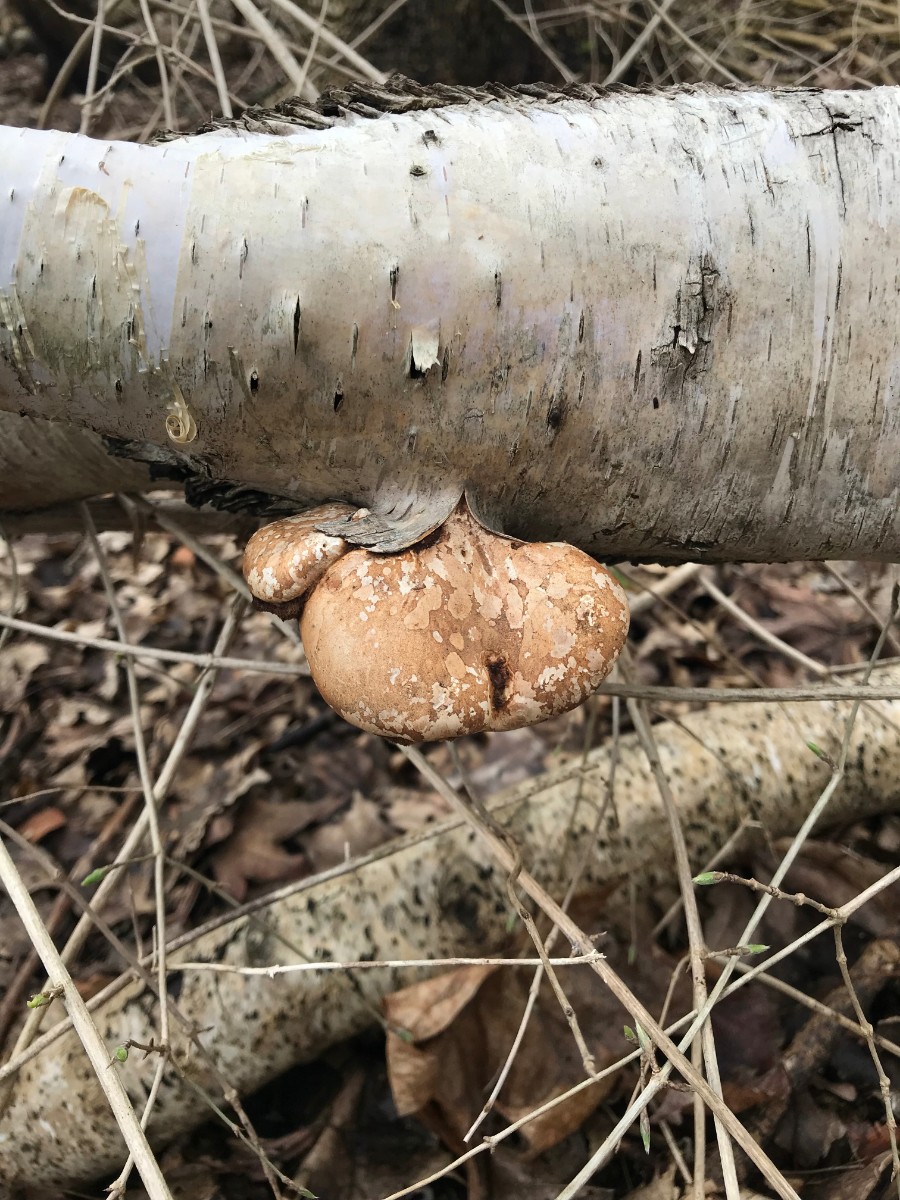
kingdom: Fungi
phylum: Basidiomycota
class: Agaricomycetes
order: Polyporales
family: Fomitopsidaceae
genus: Fomitopsis
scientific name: Fomitopsis betulina
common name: birkeporesvamp
